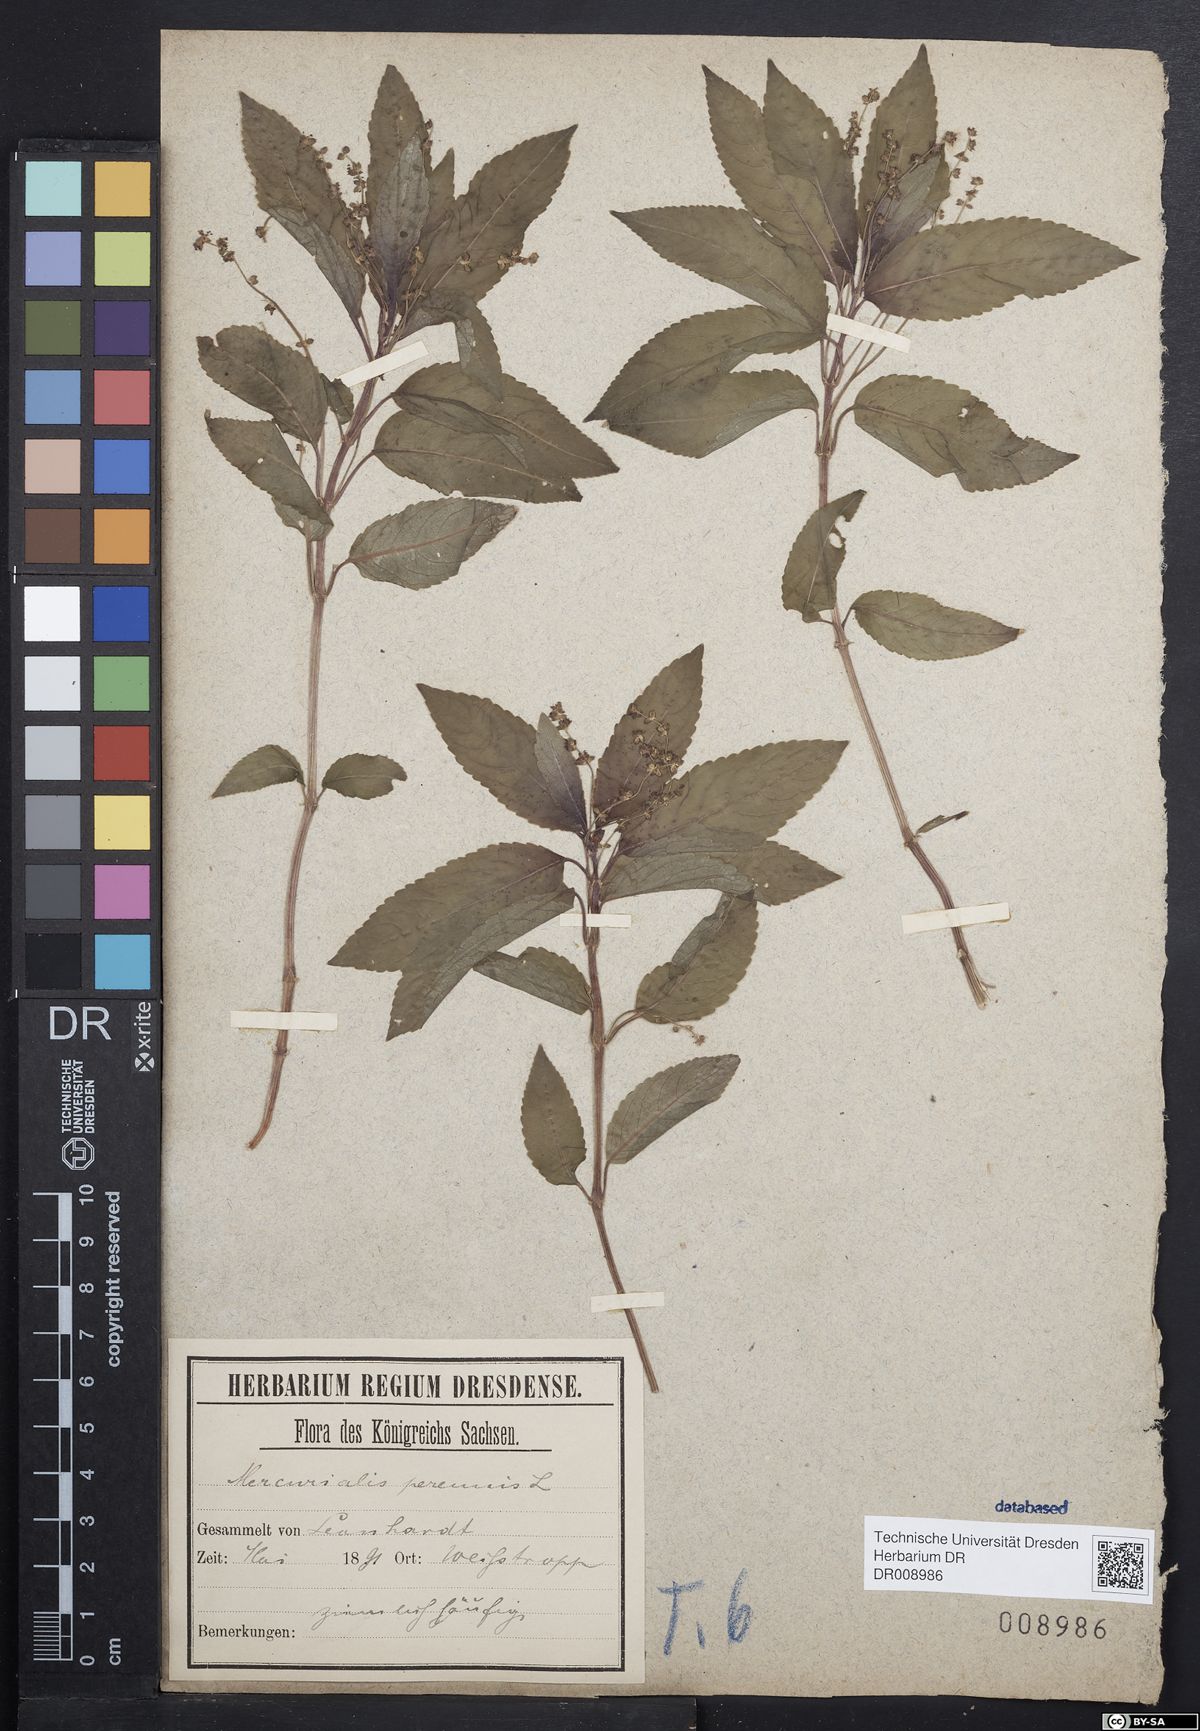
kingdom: Plantae
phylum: Tracheophyta
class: Magnoliopsida
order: Malpighiales
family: Euphorbiaceae
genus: Mercurialis
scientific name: Mercurialis perennis
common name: Dog mercury
